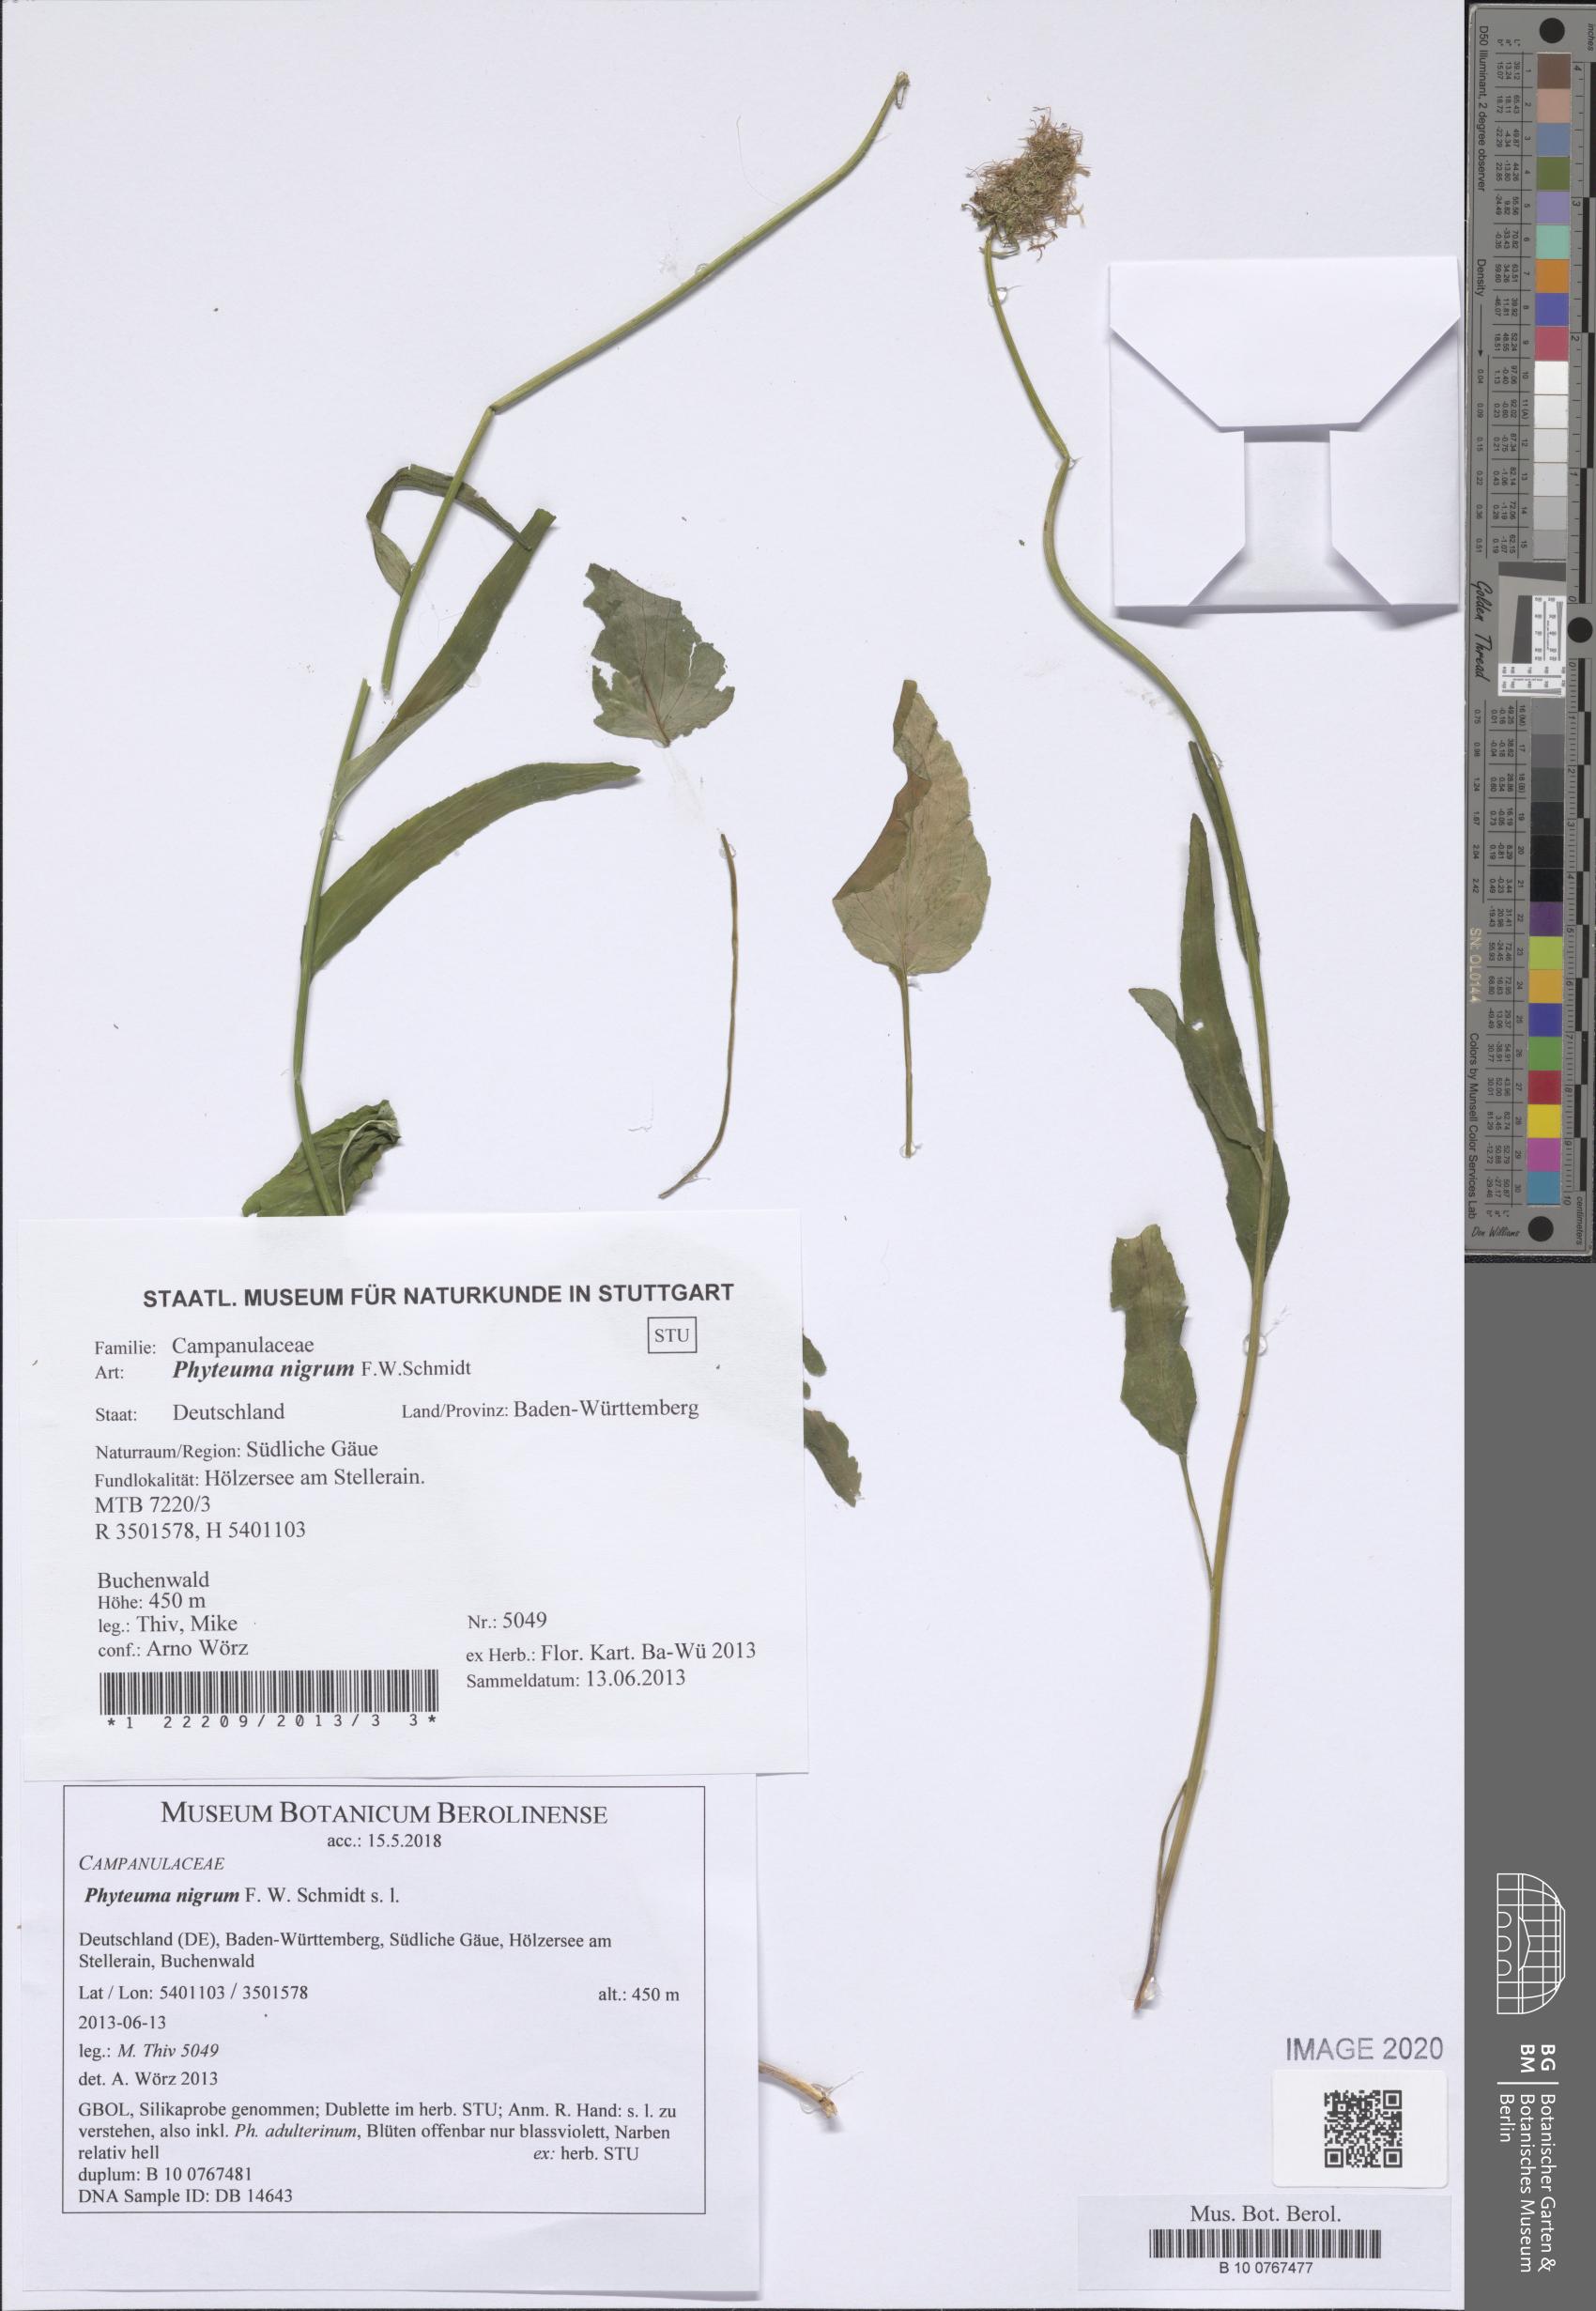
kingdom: Plantae
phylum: Tracheophyta
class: Magnoliopsida
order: Asterales
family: Campanulaceae
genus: Phyteuma
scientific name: Phyteuma nigrum
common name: Black rampion
